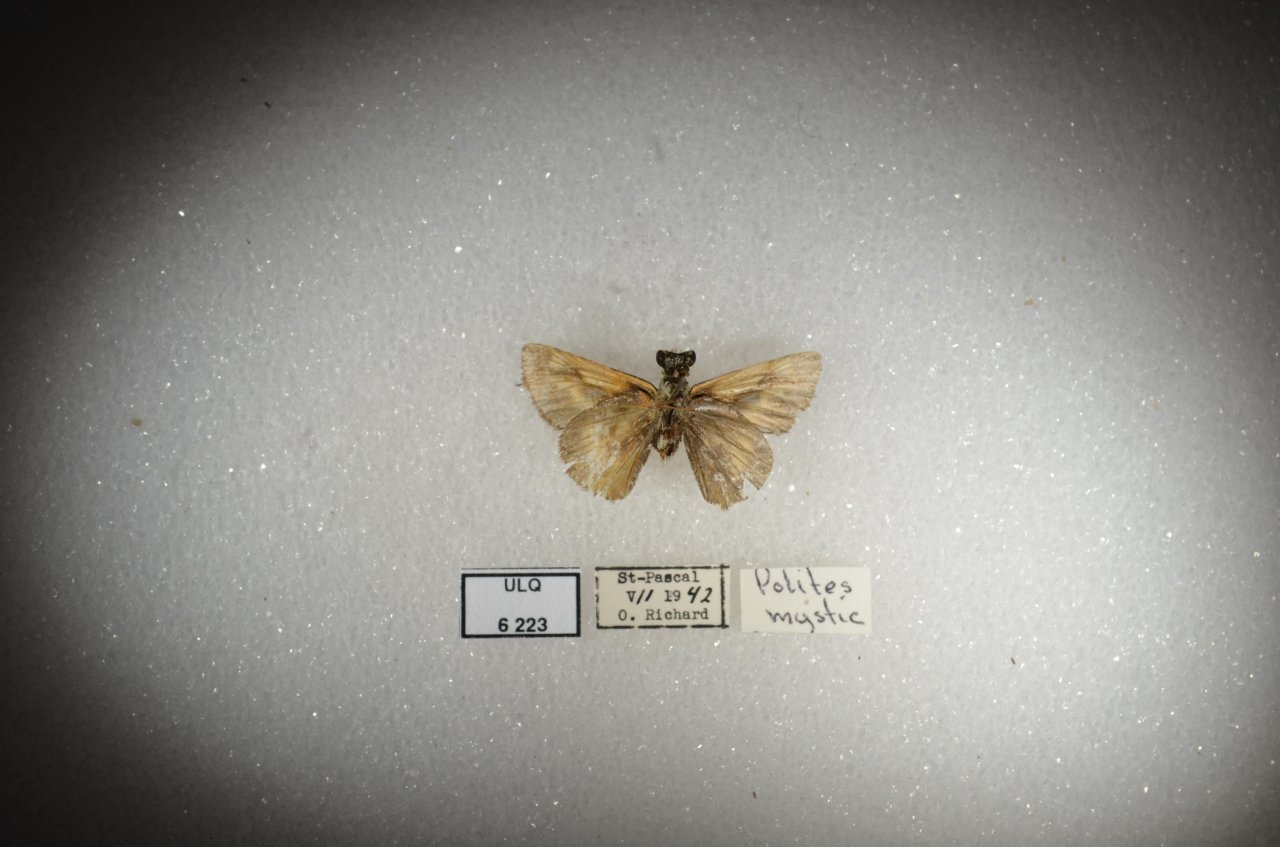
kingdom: Animalia
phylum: Arthropoda
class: Insecta
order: Lepidoptera
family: Hesperiidae
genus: Polites
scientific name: Polites themistocles
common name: Tawny-edged Skipper
